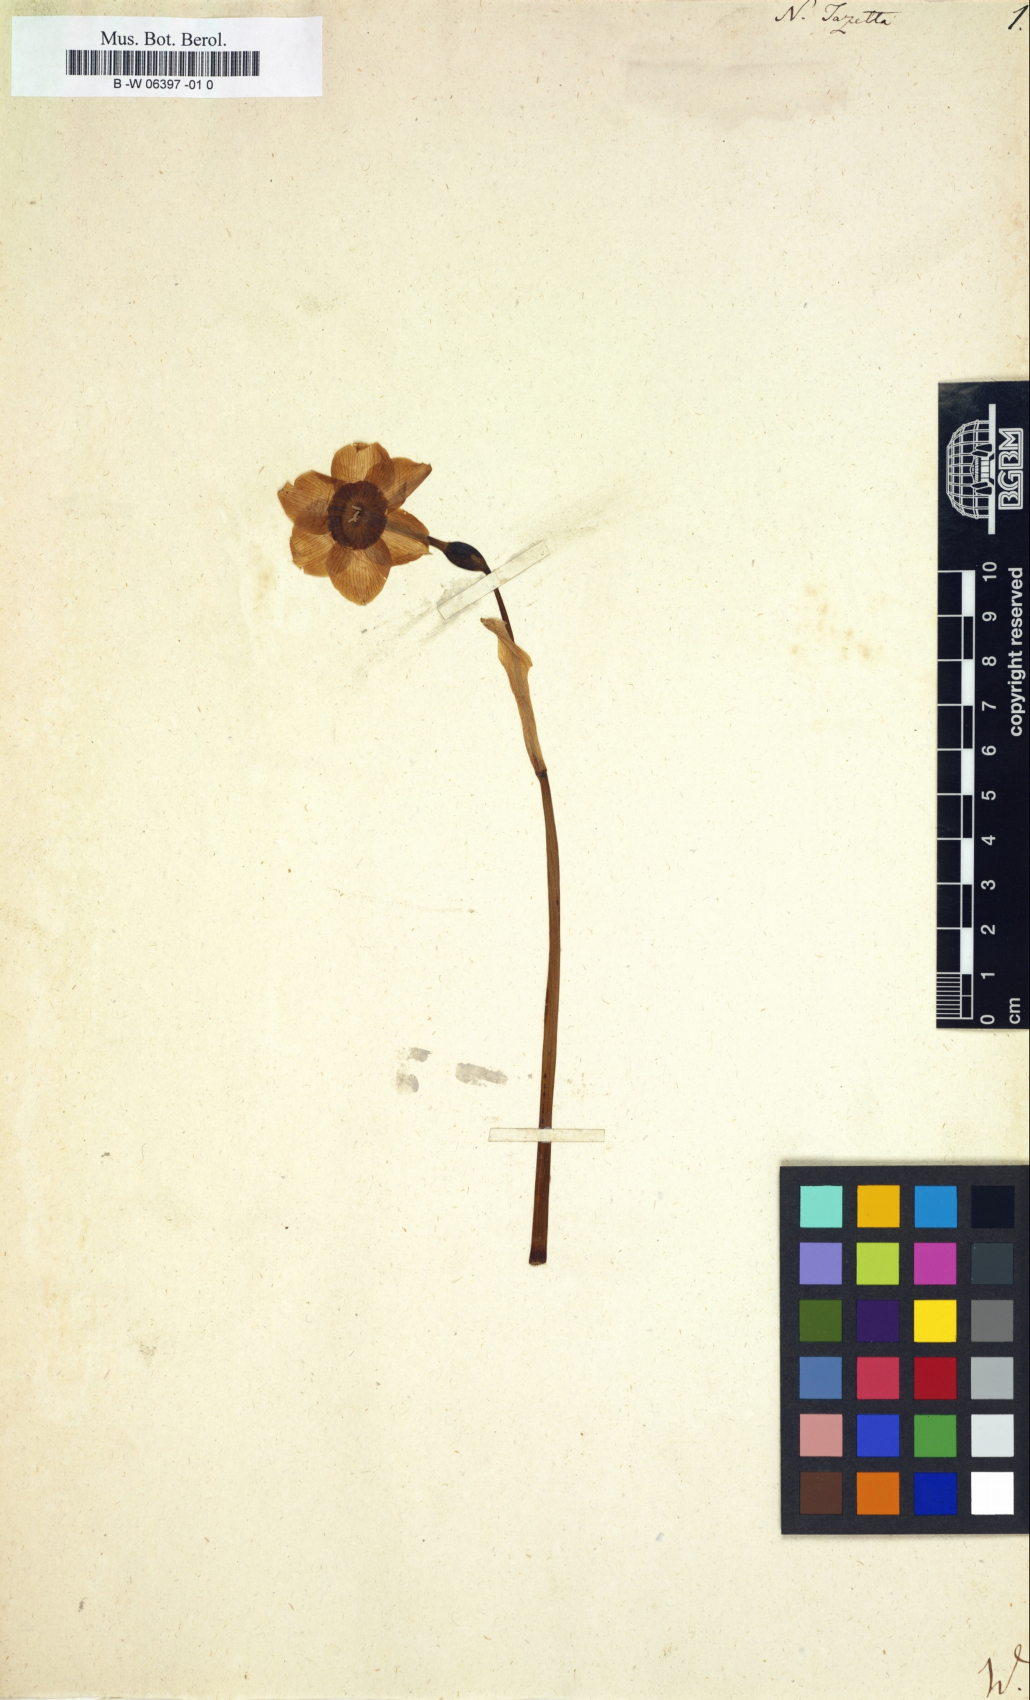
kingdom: Plantae
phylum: Tracheophyta
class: Liliopsida
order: Asparagales
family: Amaryllidaceae
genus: Narcissus
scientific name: Narcissus tazetta
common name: Bunch-flowered daffodil
